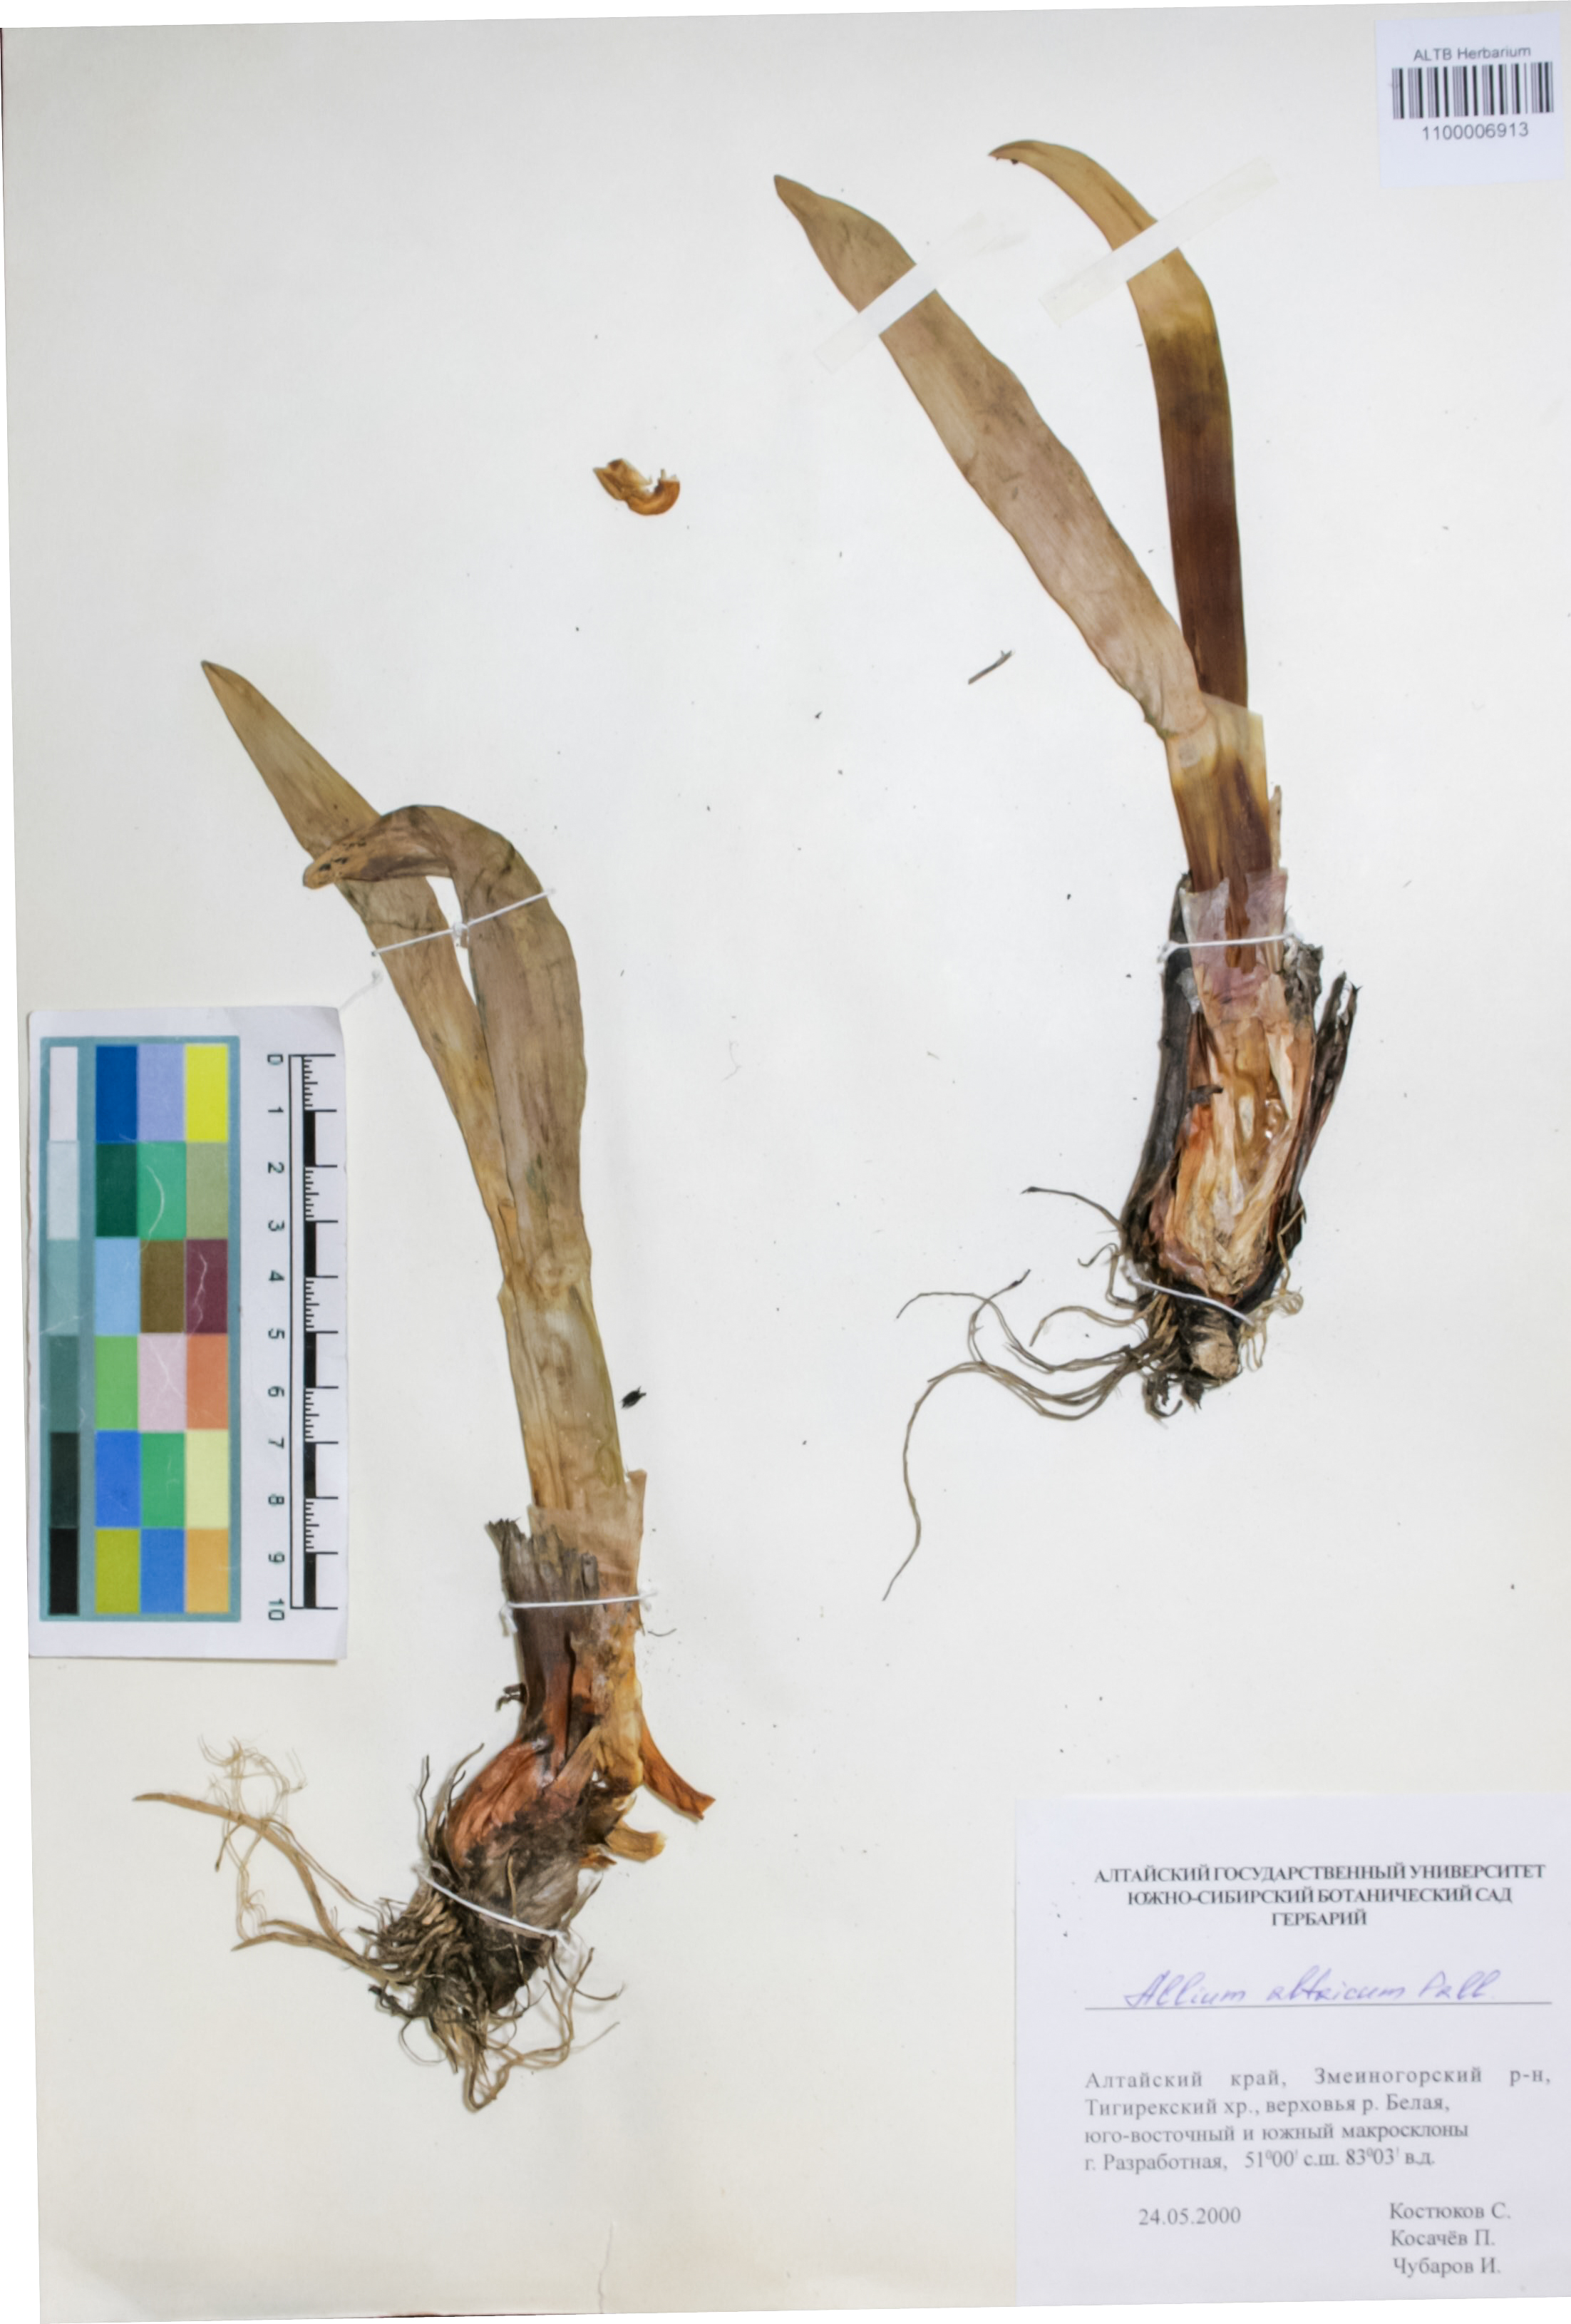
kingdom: Plantae
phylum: Tracheophyta
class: Liliopsida
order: Asparagales
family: Amaryllidaceae
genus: Allium
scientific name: Allium altaicum
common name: Altai onion
